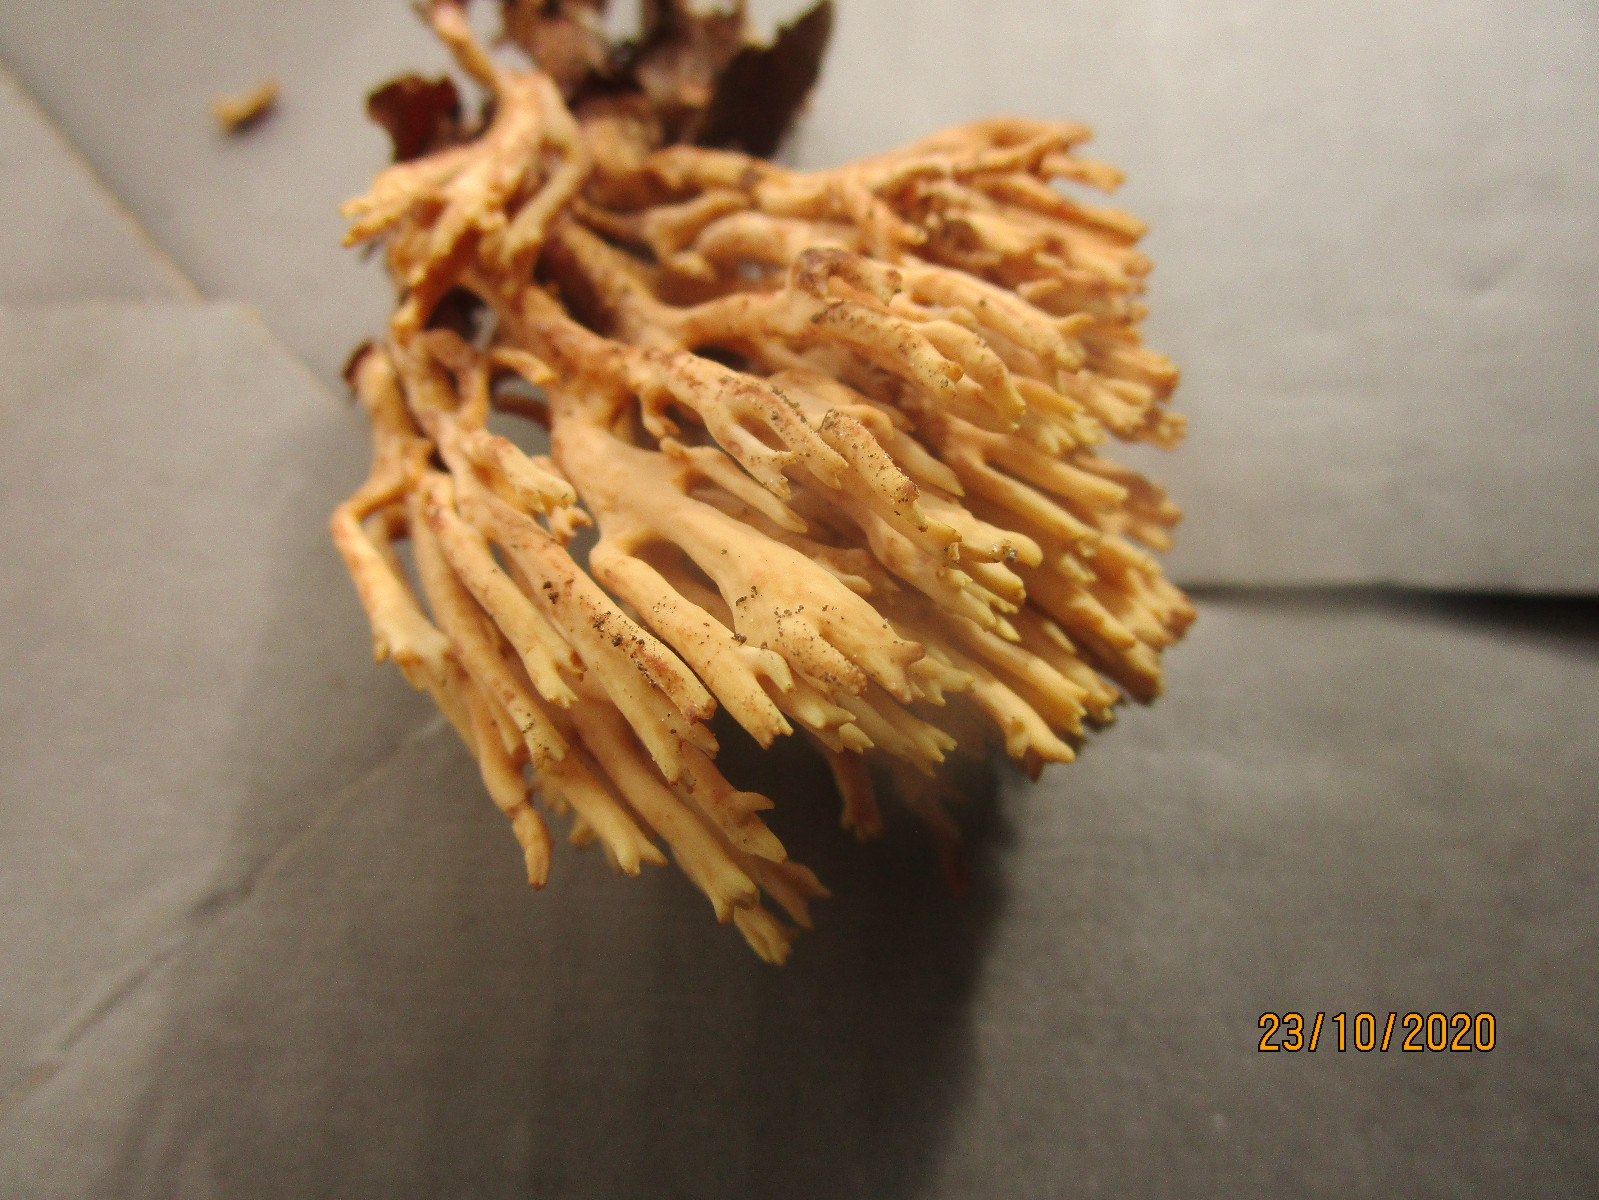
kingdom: Fungi
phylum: Basidiomycota
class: Agaricomycetes
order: Gomphales
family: Gomphaceae
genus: Ramaria
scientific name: Ramaria stricta
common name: rank koralsvamp
